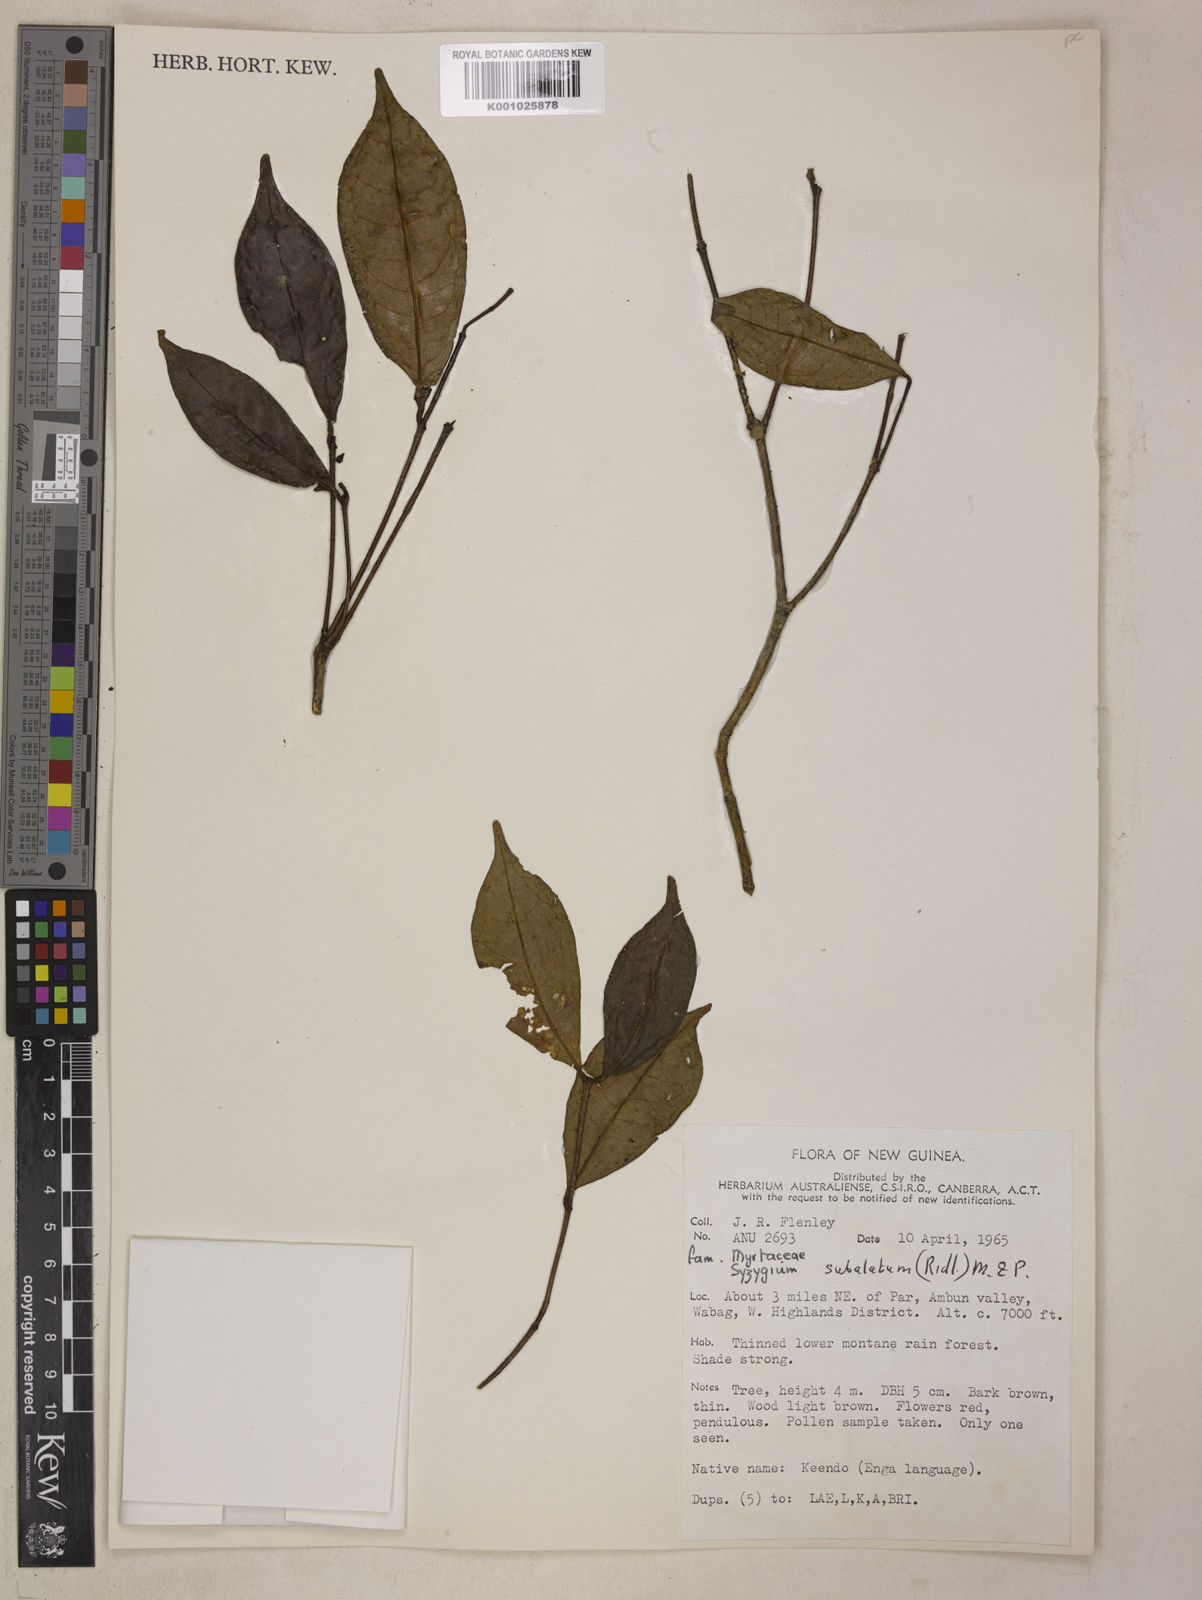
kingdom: Plantae
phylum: Tracheophyta
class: Magnoliopsida
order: Myrtales
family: Myrtaceae
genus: Syzygium
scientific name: Syzygium subalatum
